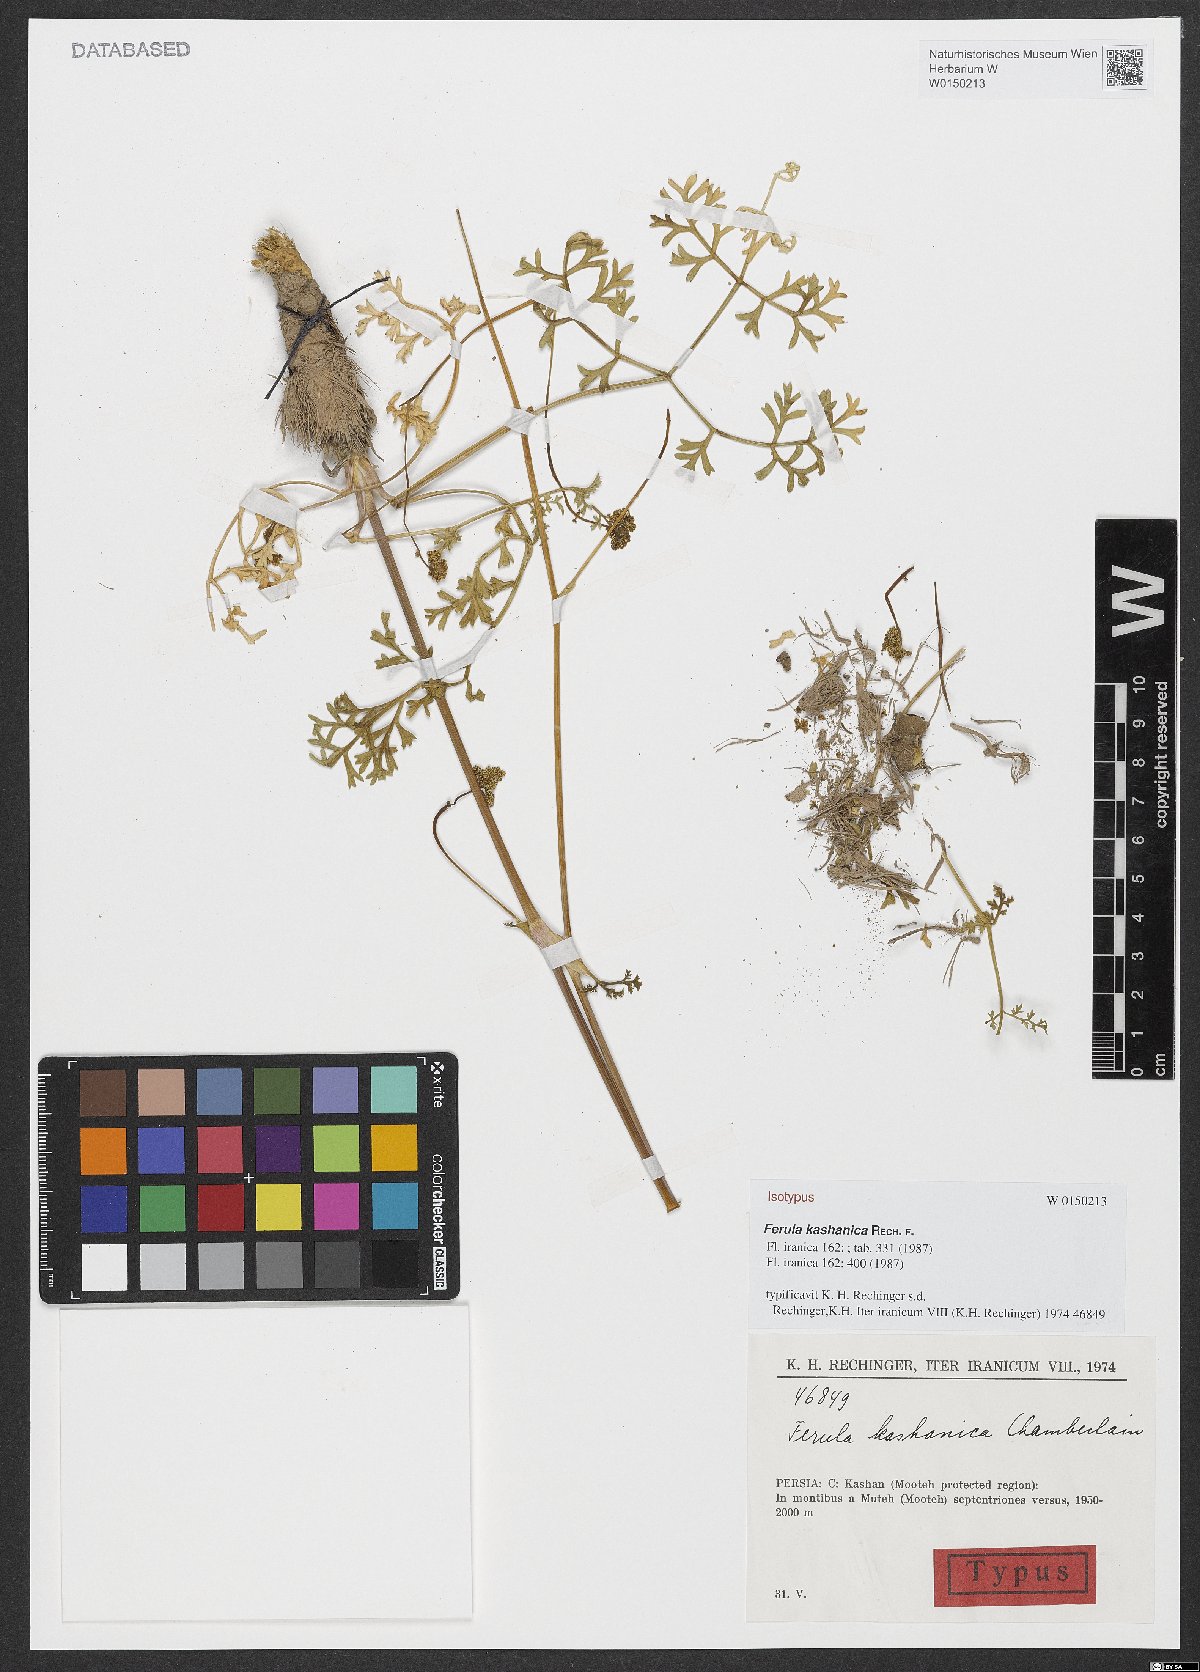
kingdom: Plantae
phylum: Tracheophyta
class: Magnoliopsida
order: Apiales
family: Apiaceae
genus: Ferula
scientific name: Ferula kashanica
